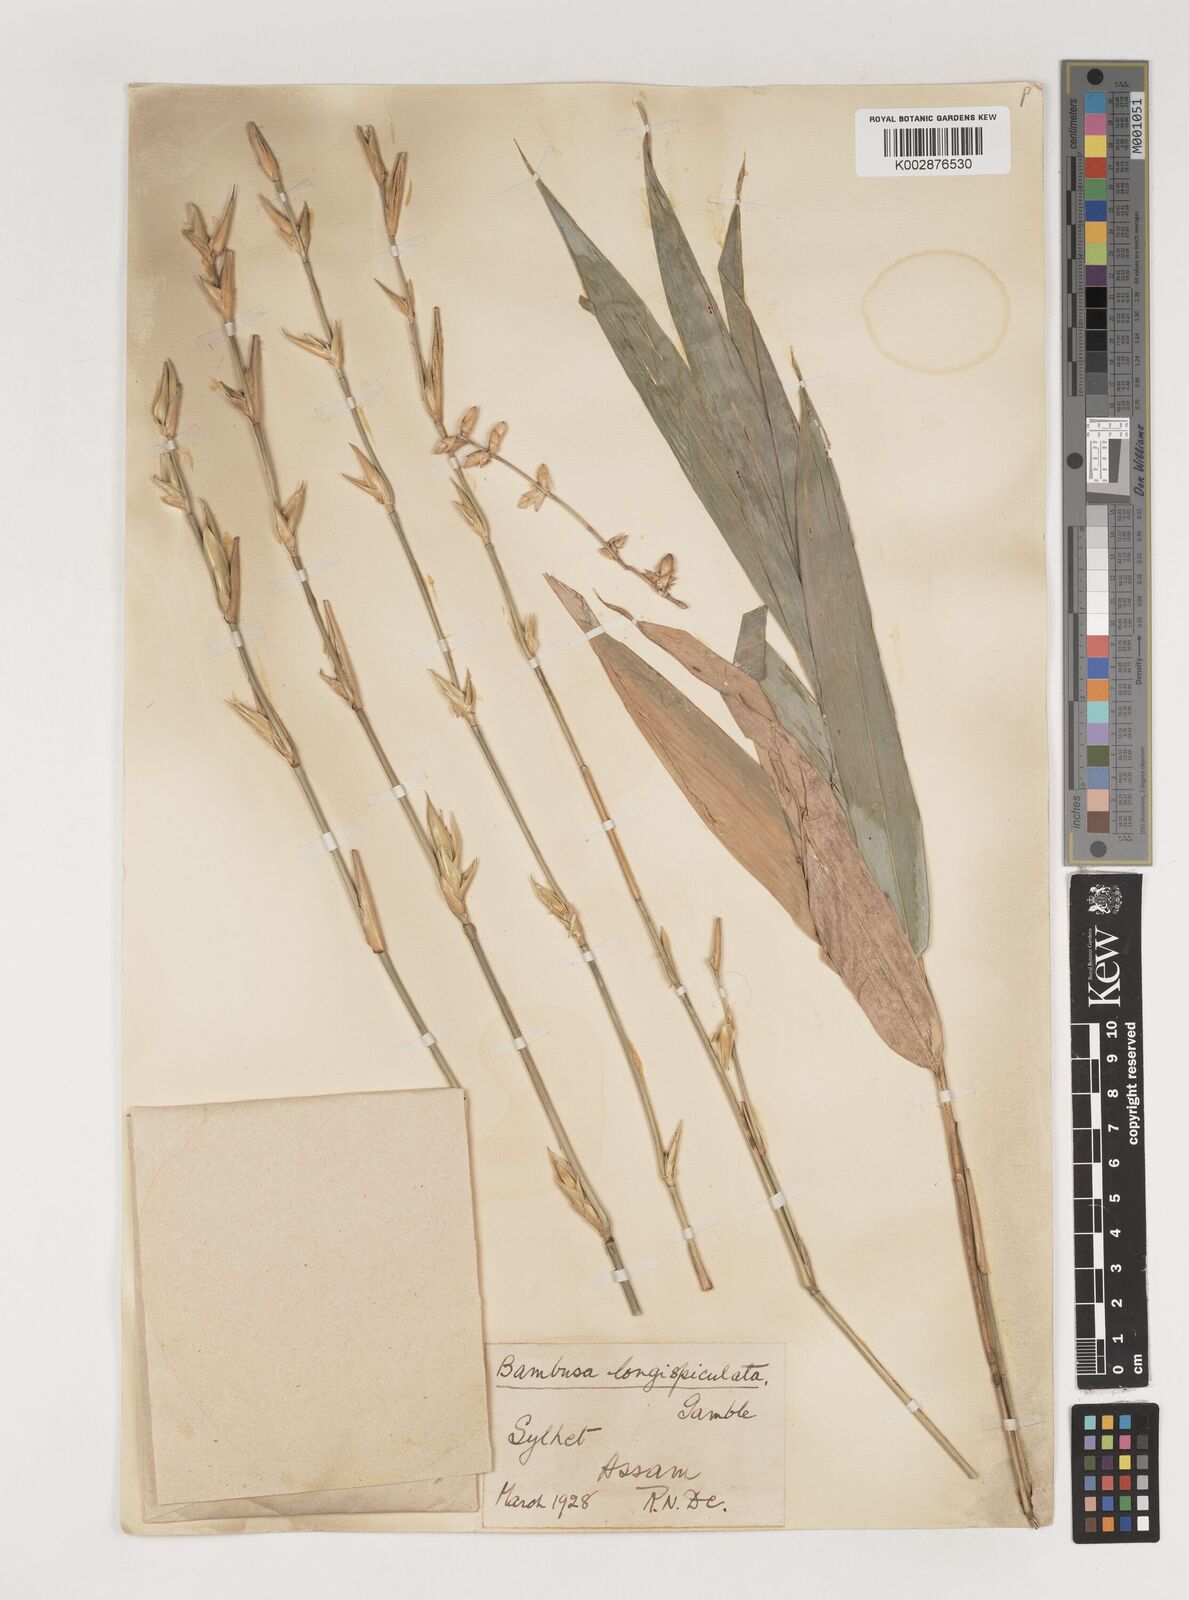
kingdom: Plantae
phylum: Tracheophyta
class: Liliopsida
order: Poales
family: Poaceae
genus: Bambusa
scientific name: Bambusa longispiculata
